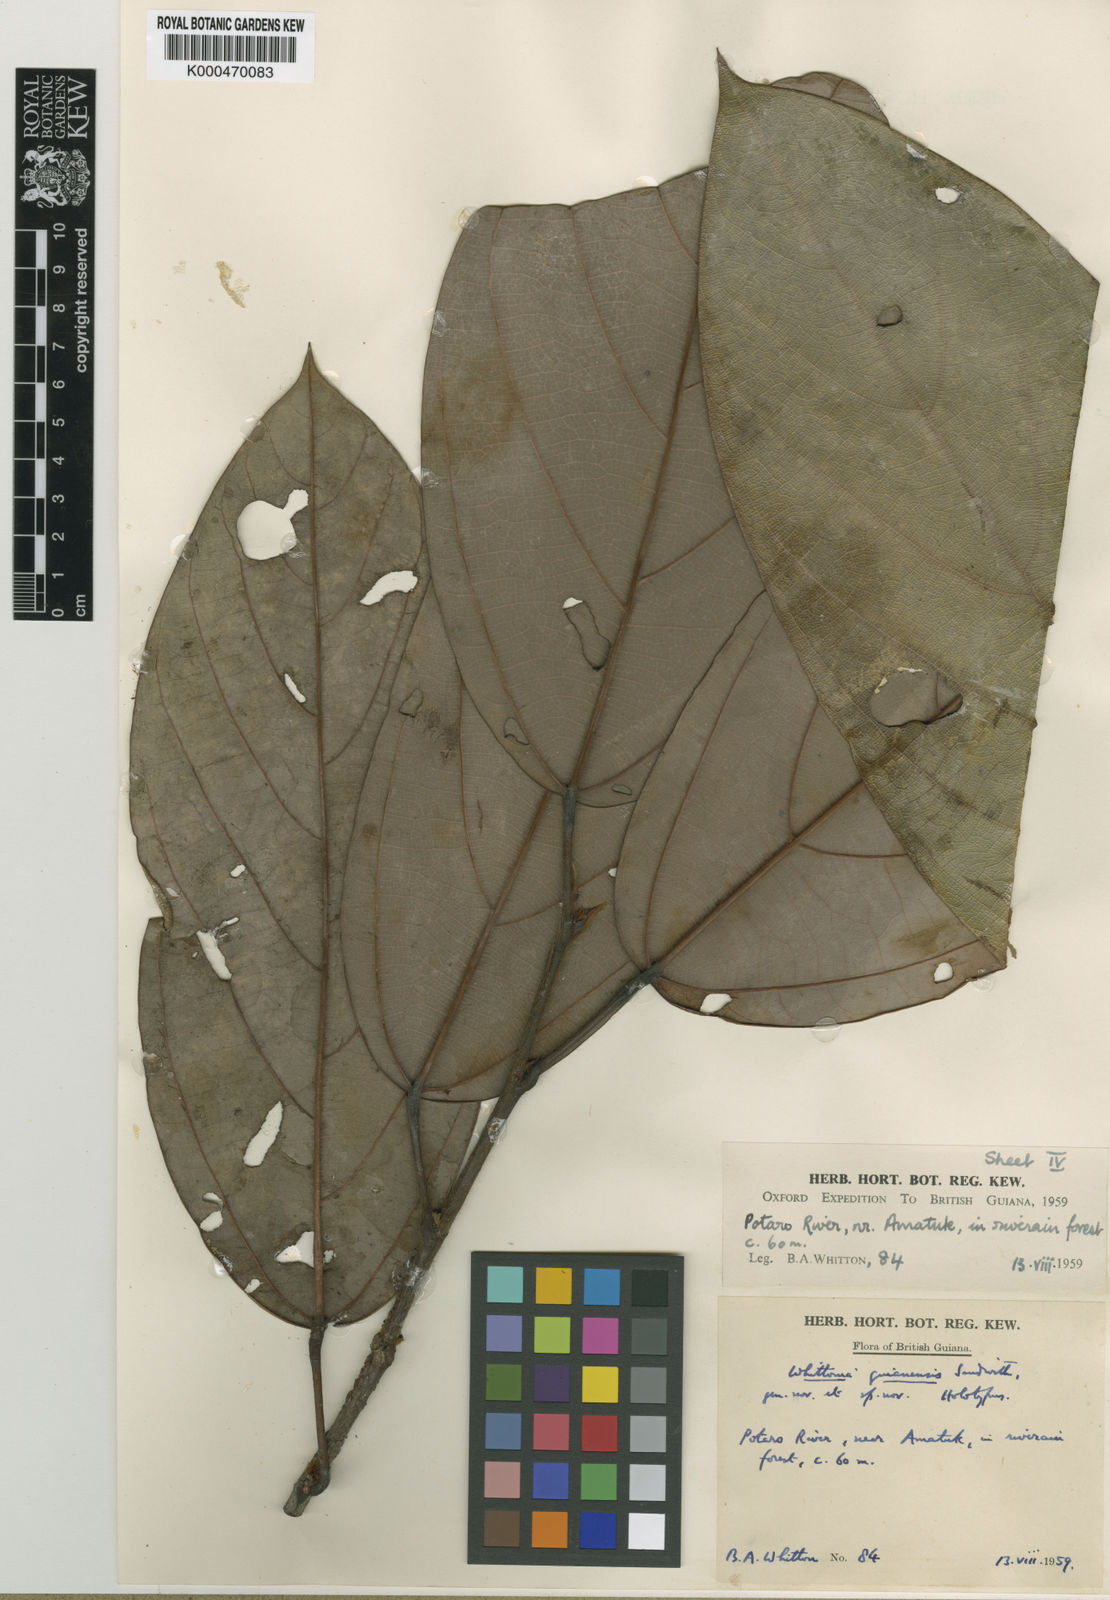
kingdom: Plantae
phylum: Tracheophyta
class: Magnoliopsida
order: Saxifragales
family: Peridiscaceae
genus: Whittonia
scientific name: Whittonia guianensis
